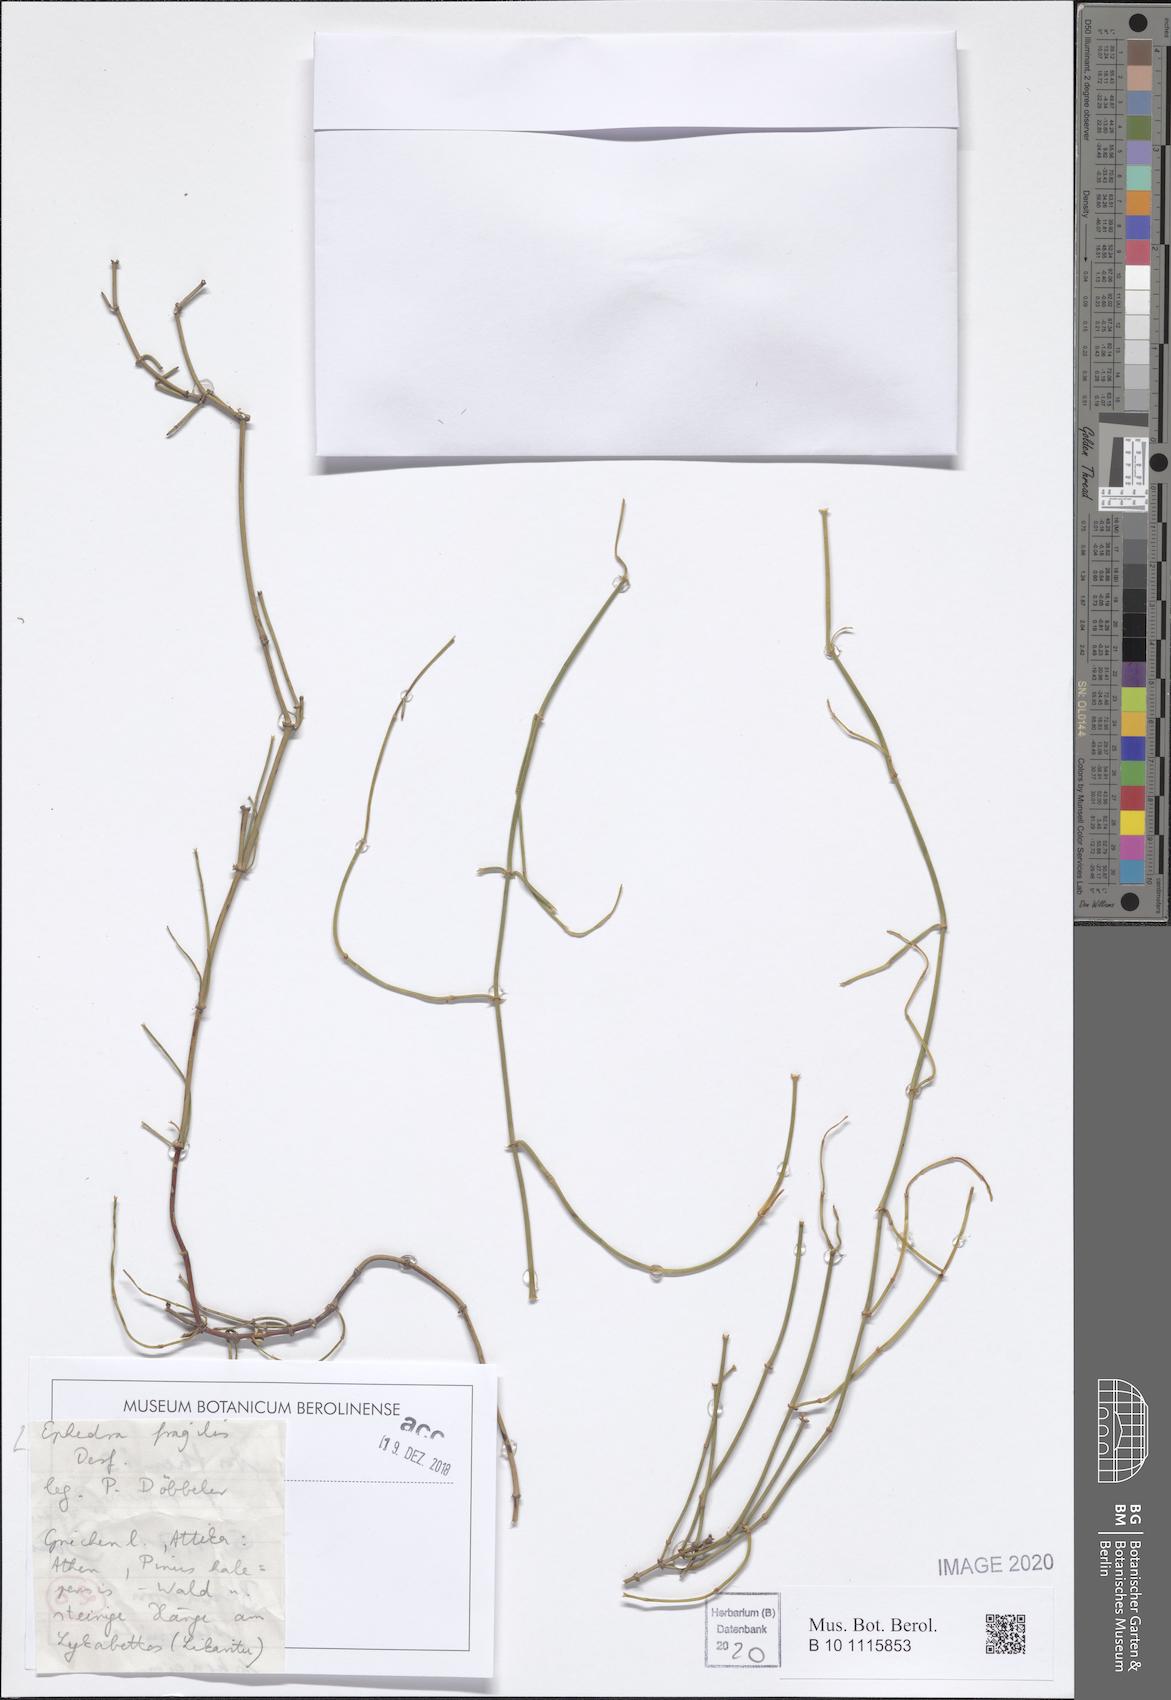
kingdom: Plantae
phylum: Tracheophyta
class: Gnetopsida
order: Ephedrales
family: Ephedraceae
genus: Ephedra
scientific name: Ephedra fragilis
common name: Joint pine
